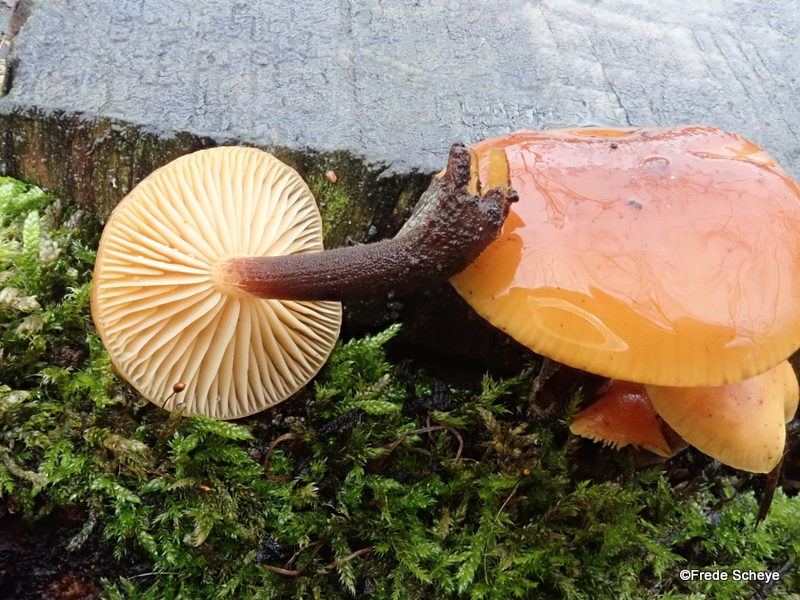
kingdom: Fungi
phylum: Basidiomycota
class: Agaricomycetes
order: Agaricales
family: Physalacriaceae
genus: Flammulina
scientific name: Flammulina velutipes
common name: gul fløjlsfod
